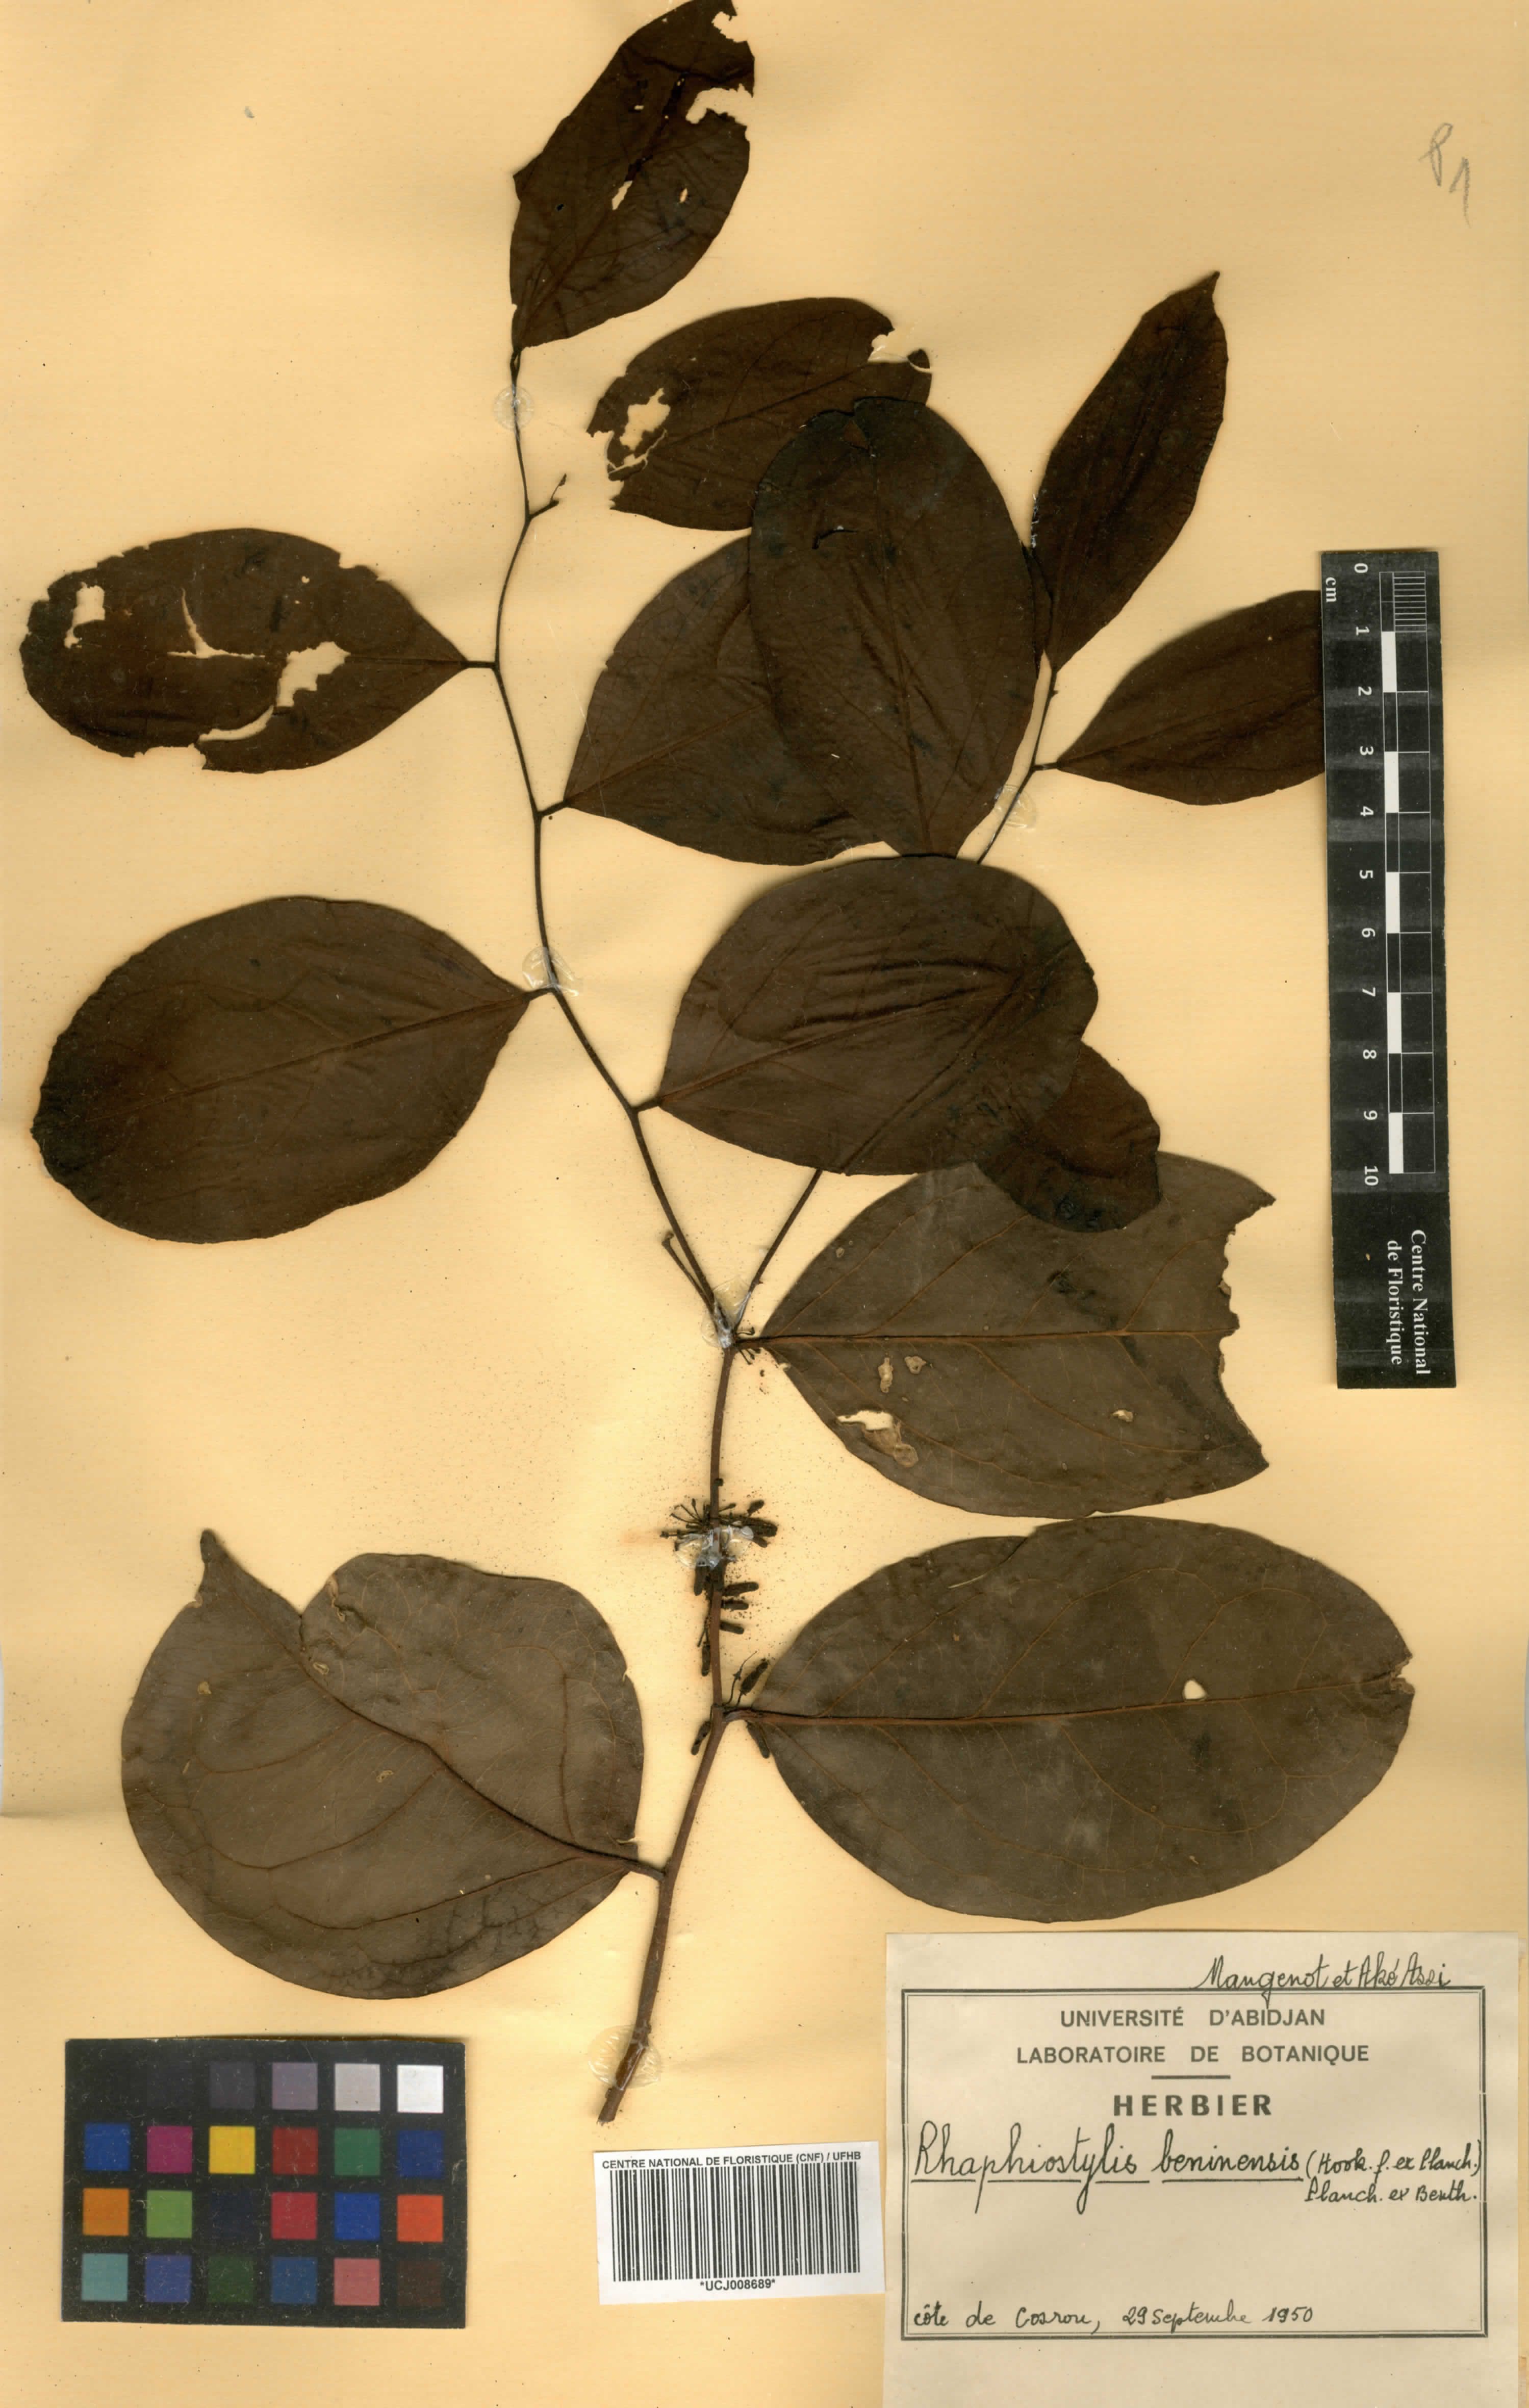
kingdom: Plantae
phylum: Tracheophyta
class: Magnoliopsida
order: Metteniusales
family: Metteniusaceae
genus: Rhaphiostylis
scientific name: Rhaphiostylis beninensis
